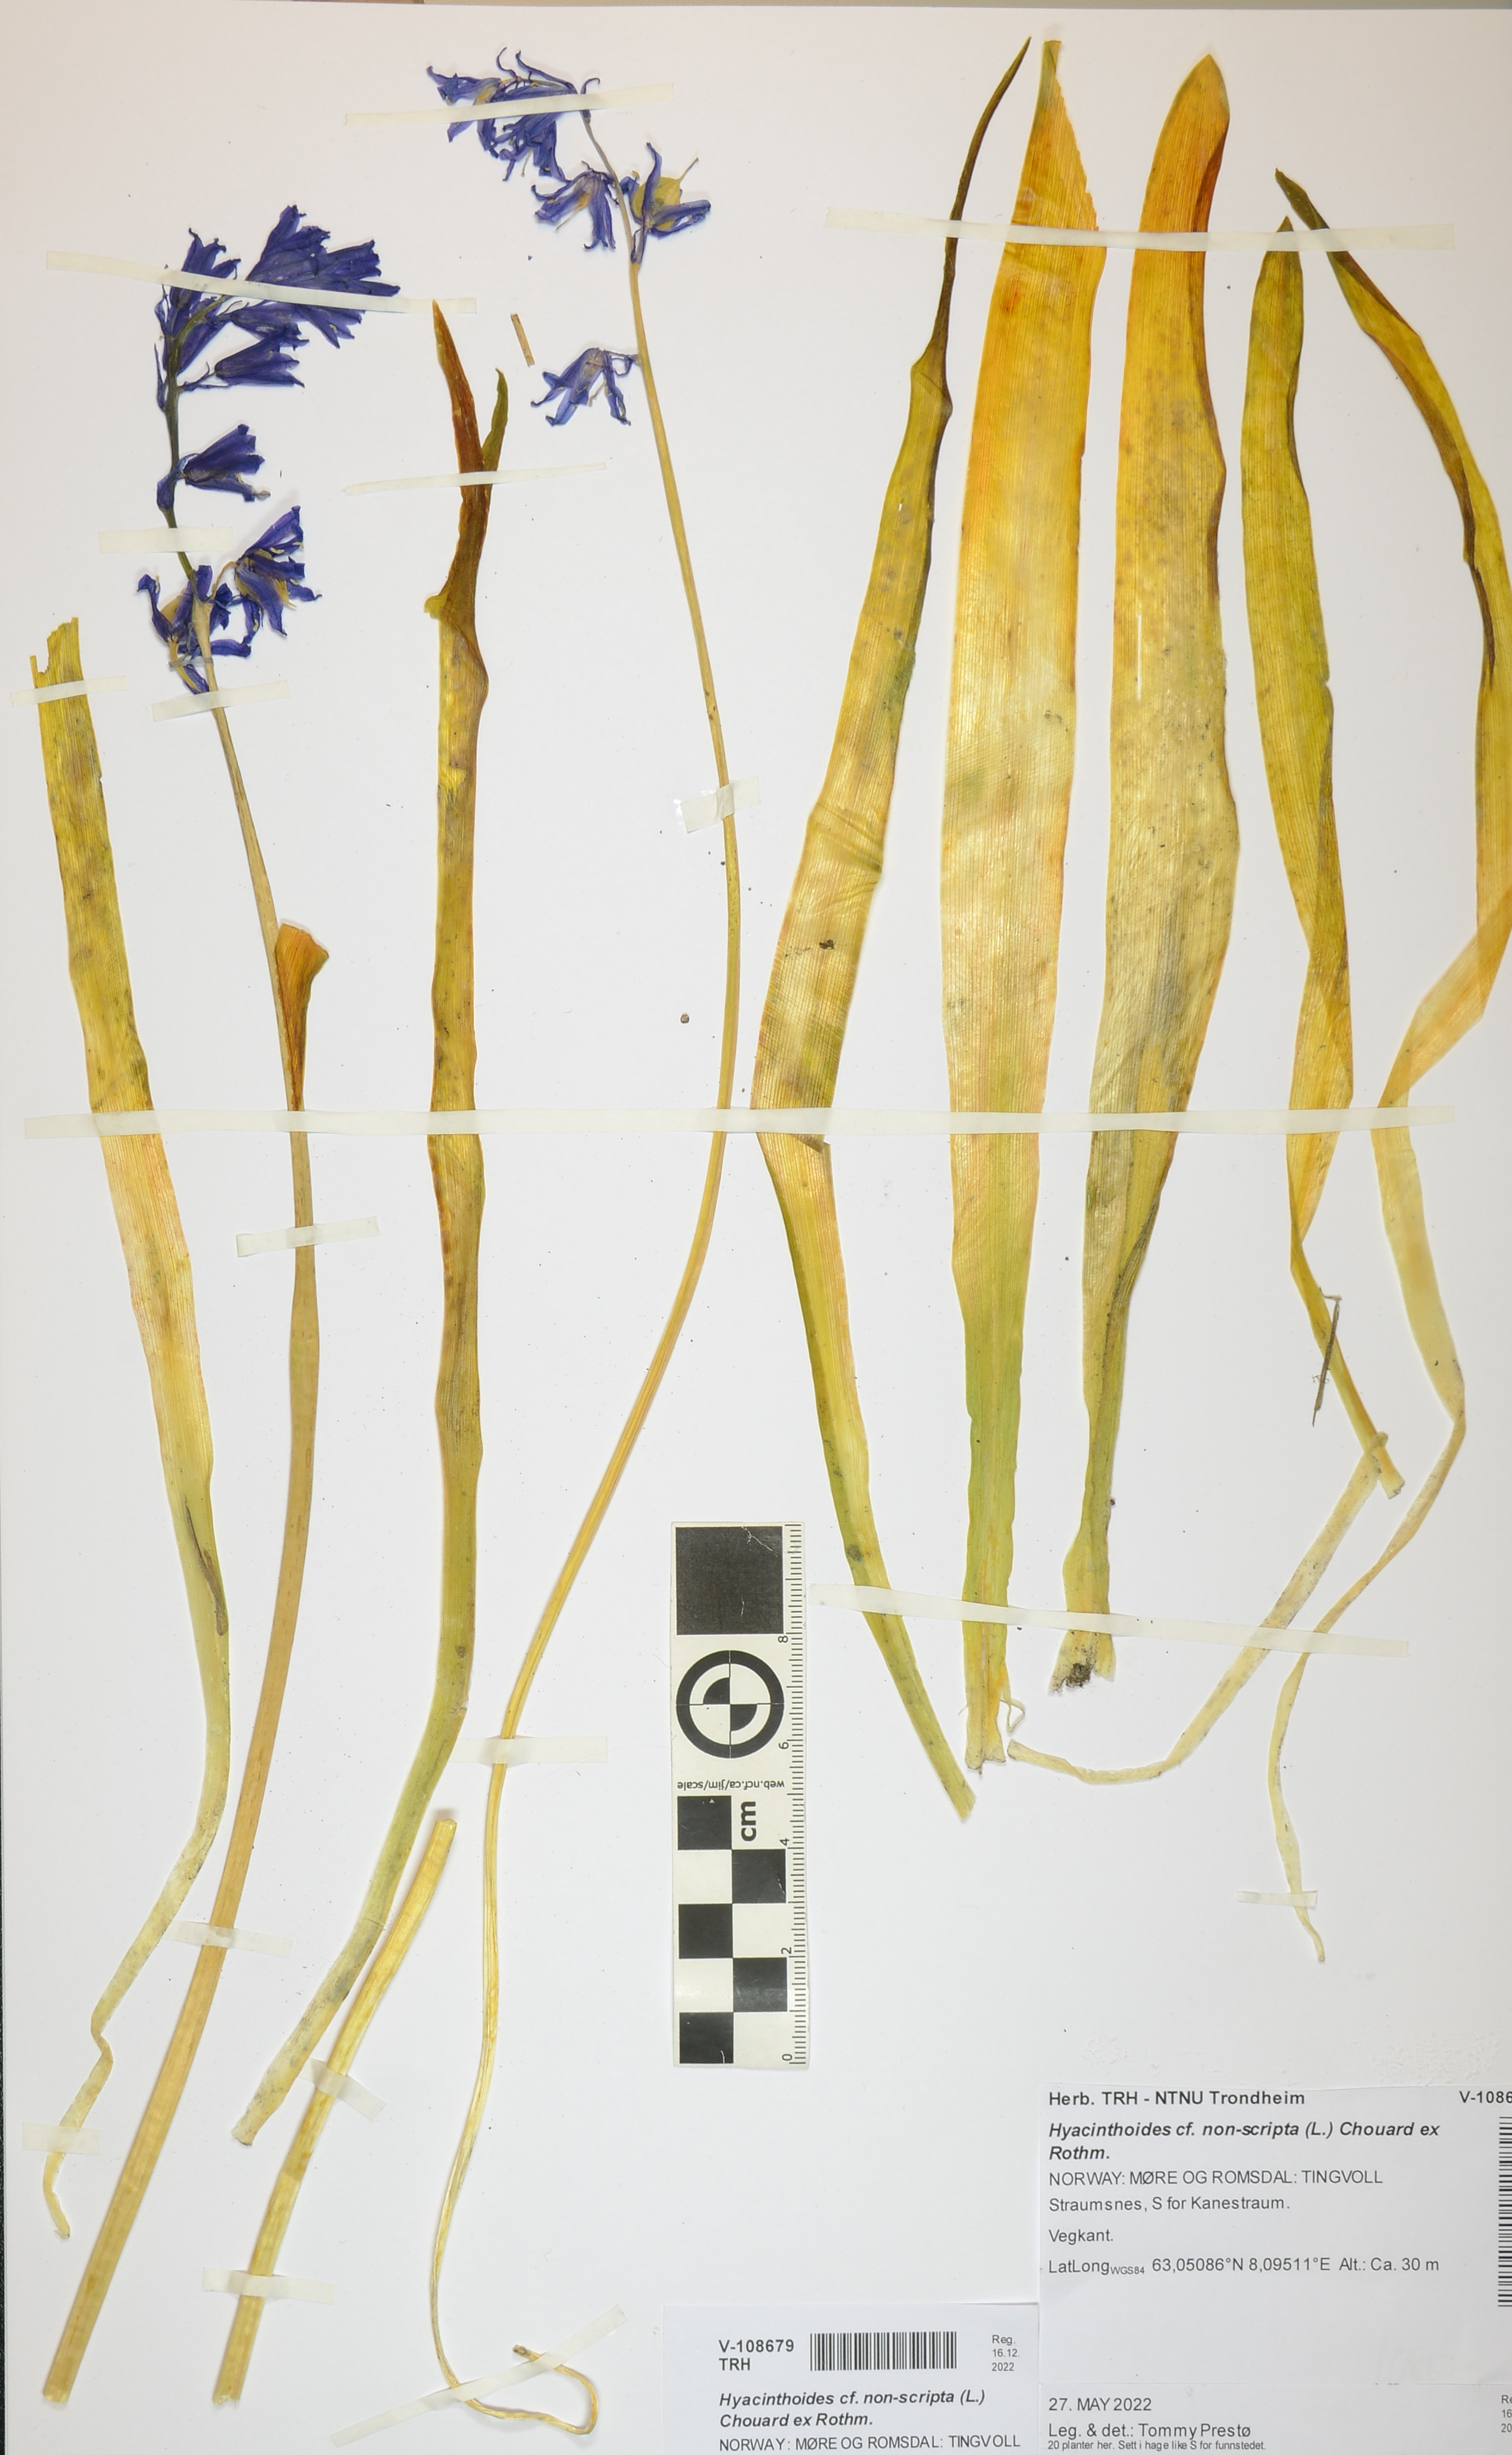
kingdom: Plantae
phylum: Tracheophyta
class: Liliopsida
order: Asparagales
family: Asparagaceae
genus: Hyacinthoides
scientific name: Hyacinthoides non-scripta
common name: Bluebell
